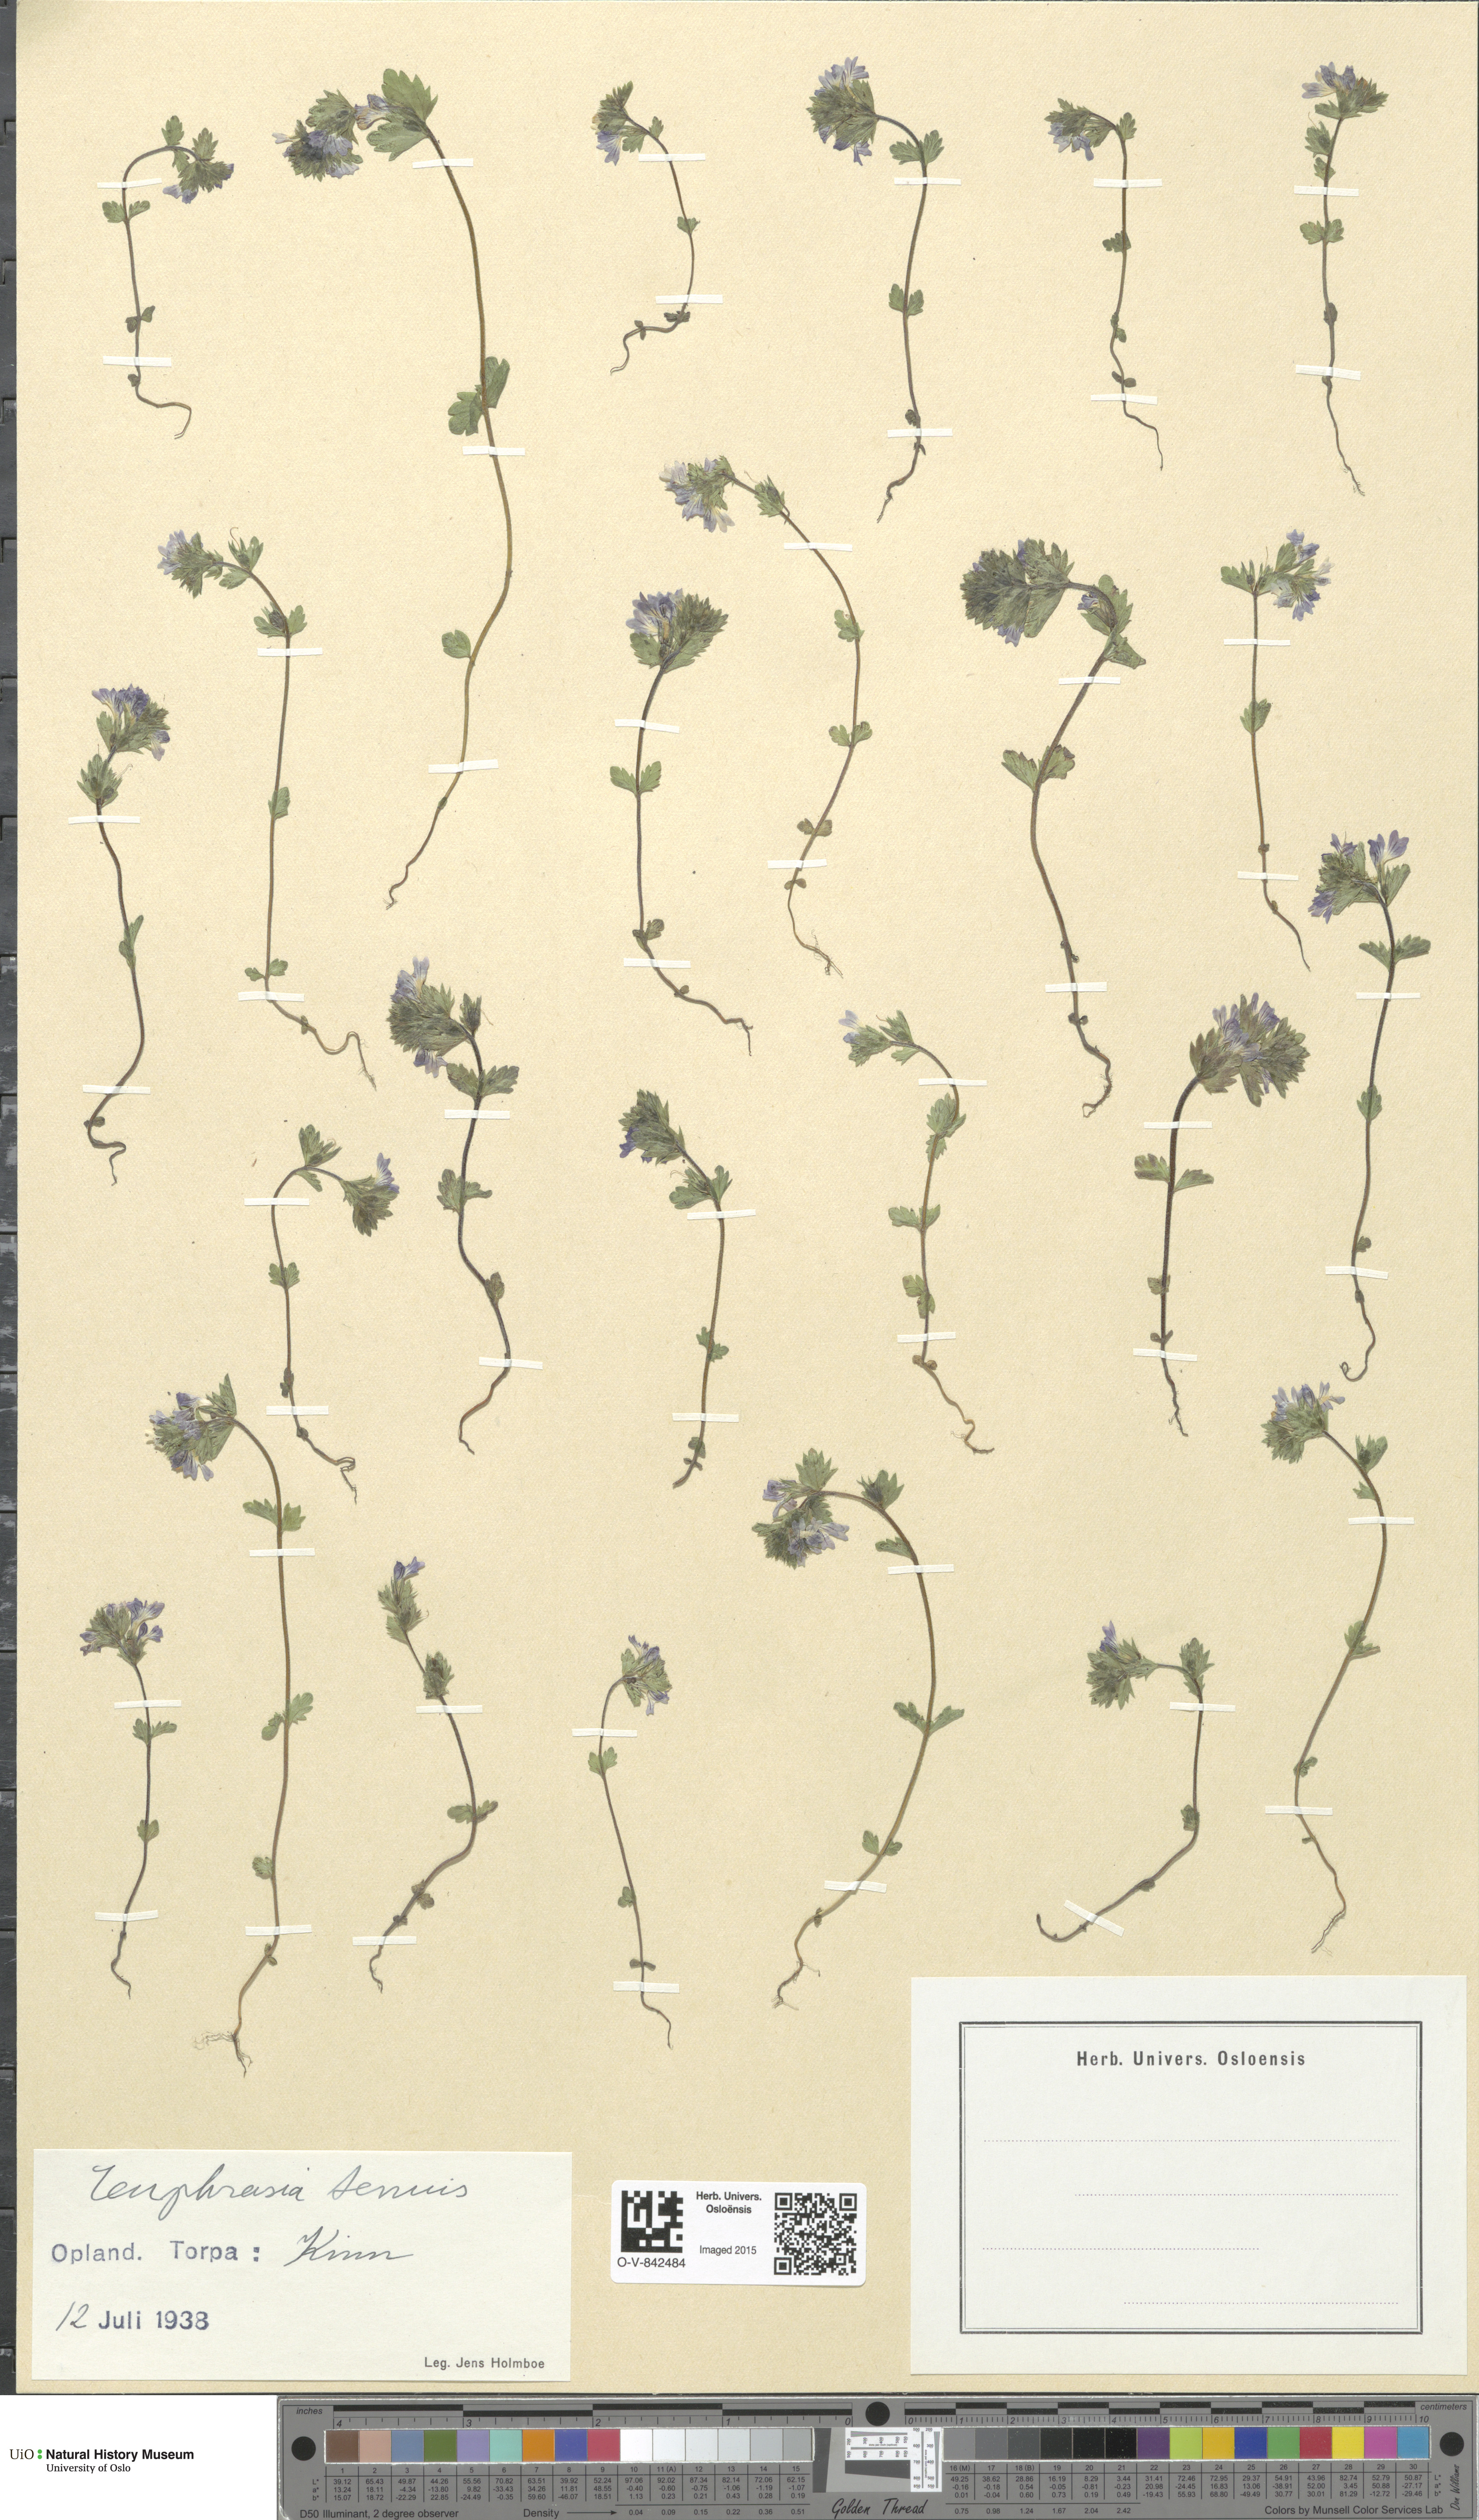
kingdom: Plantae
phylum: Tracheophyta
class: Magnoliopsida
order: Lamiales
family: Orobanchaceae
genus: Euphrasia
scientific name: Euphrasia vernalis
